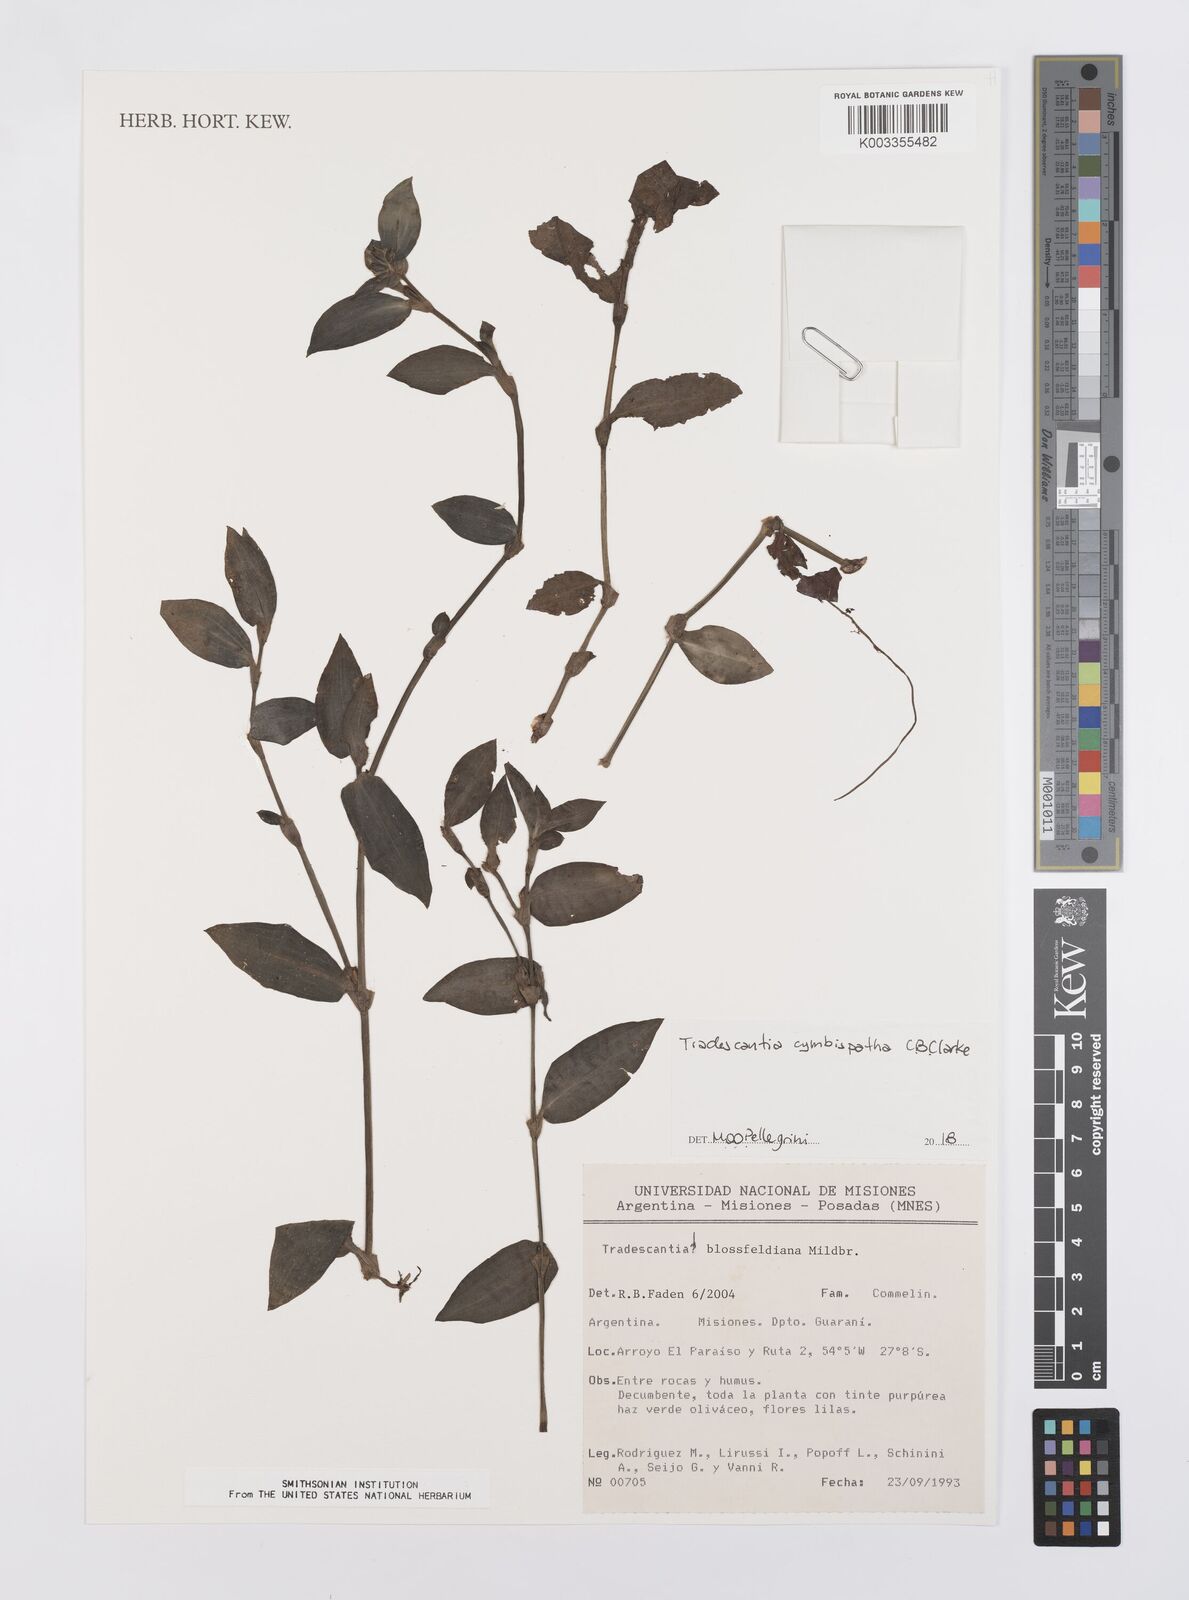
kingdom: Plantae
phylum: Tracheophyta
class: Liliopsida
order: Commelinales
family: Commelinaceae
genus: Tradescantia
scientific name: Tradescantia cymbispatha
